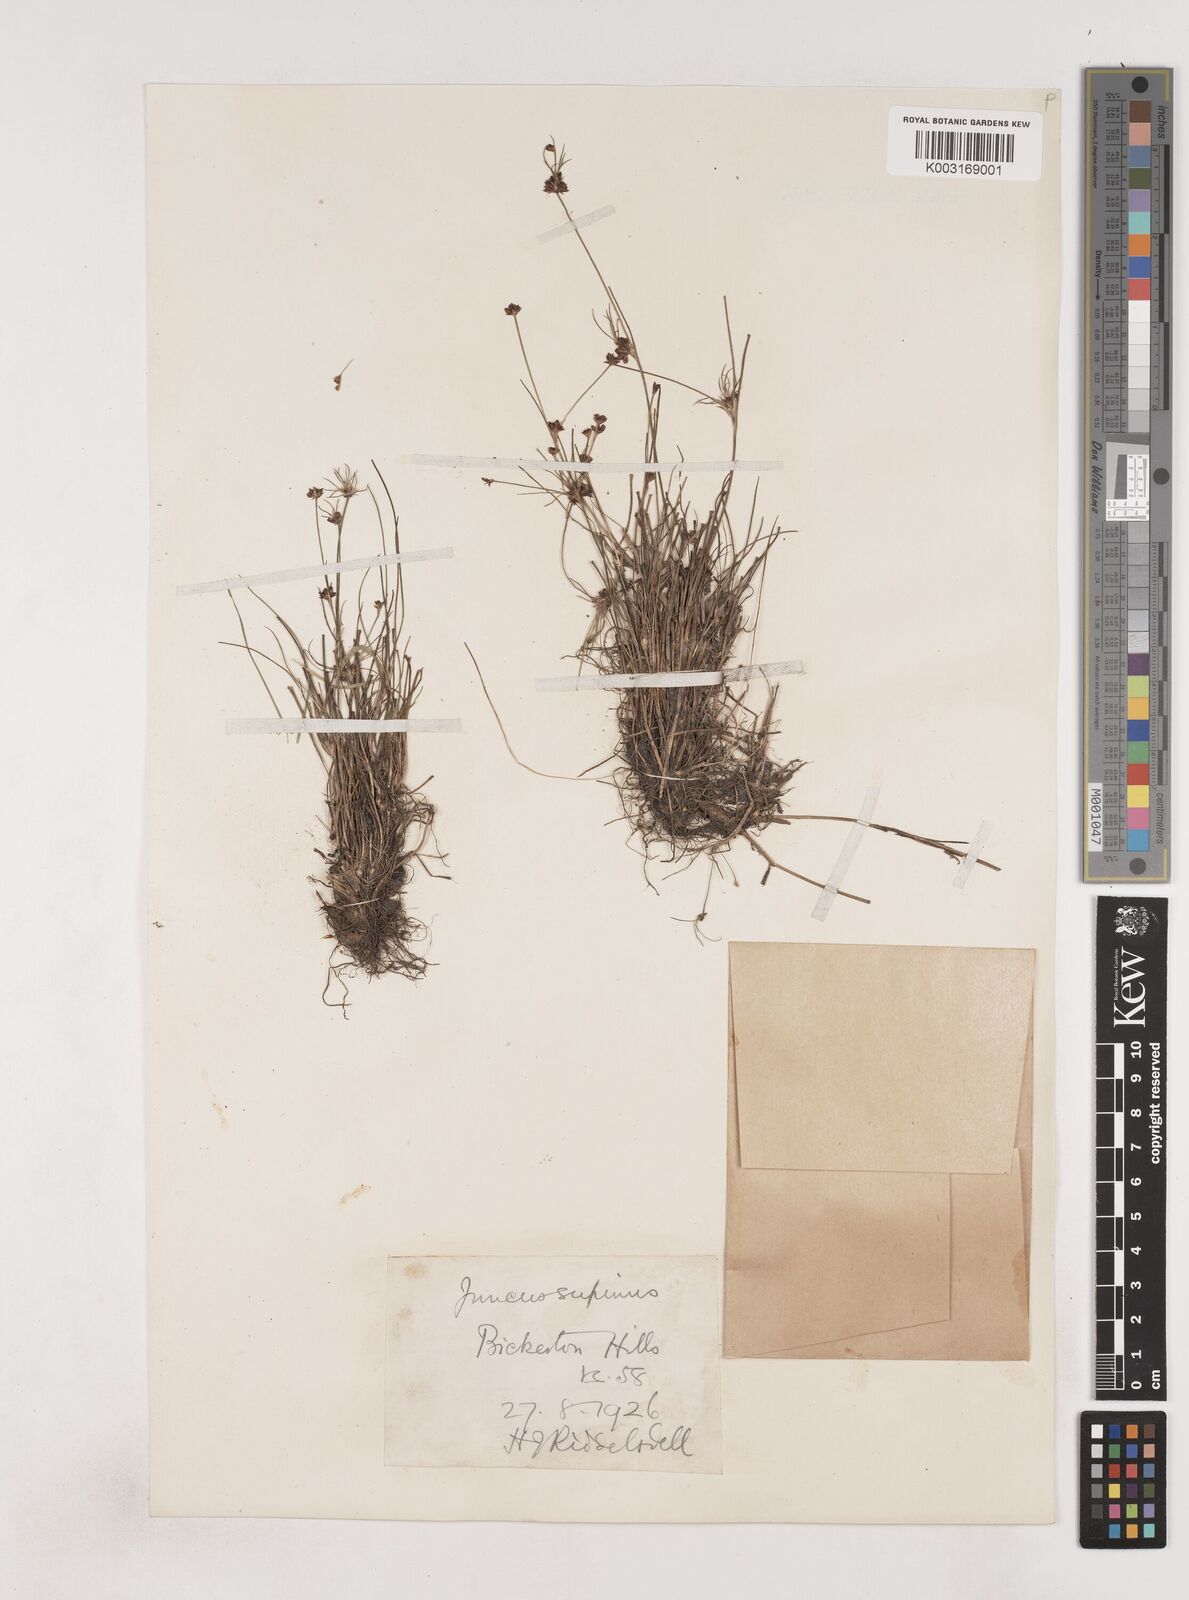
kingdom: Plantae
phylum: Tracheophyta
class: Liliopsida
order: Poales
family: Juncaceae
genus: Juncus
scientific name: Juncus bulbosus
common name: Bulbous rush
